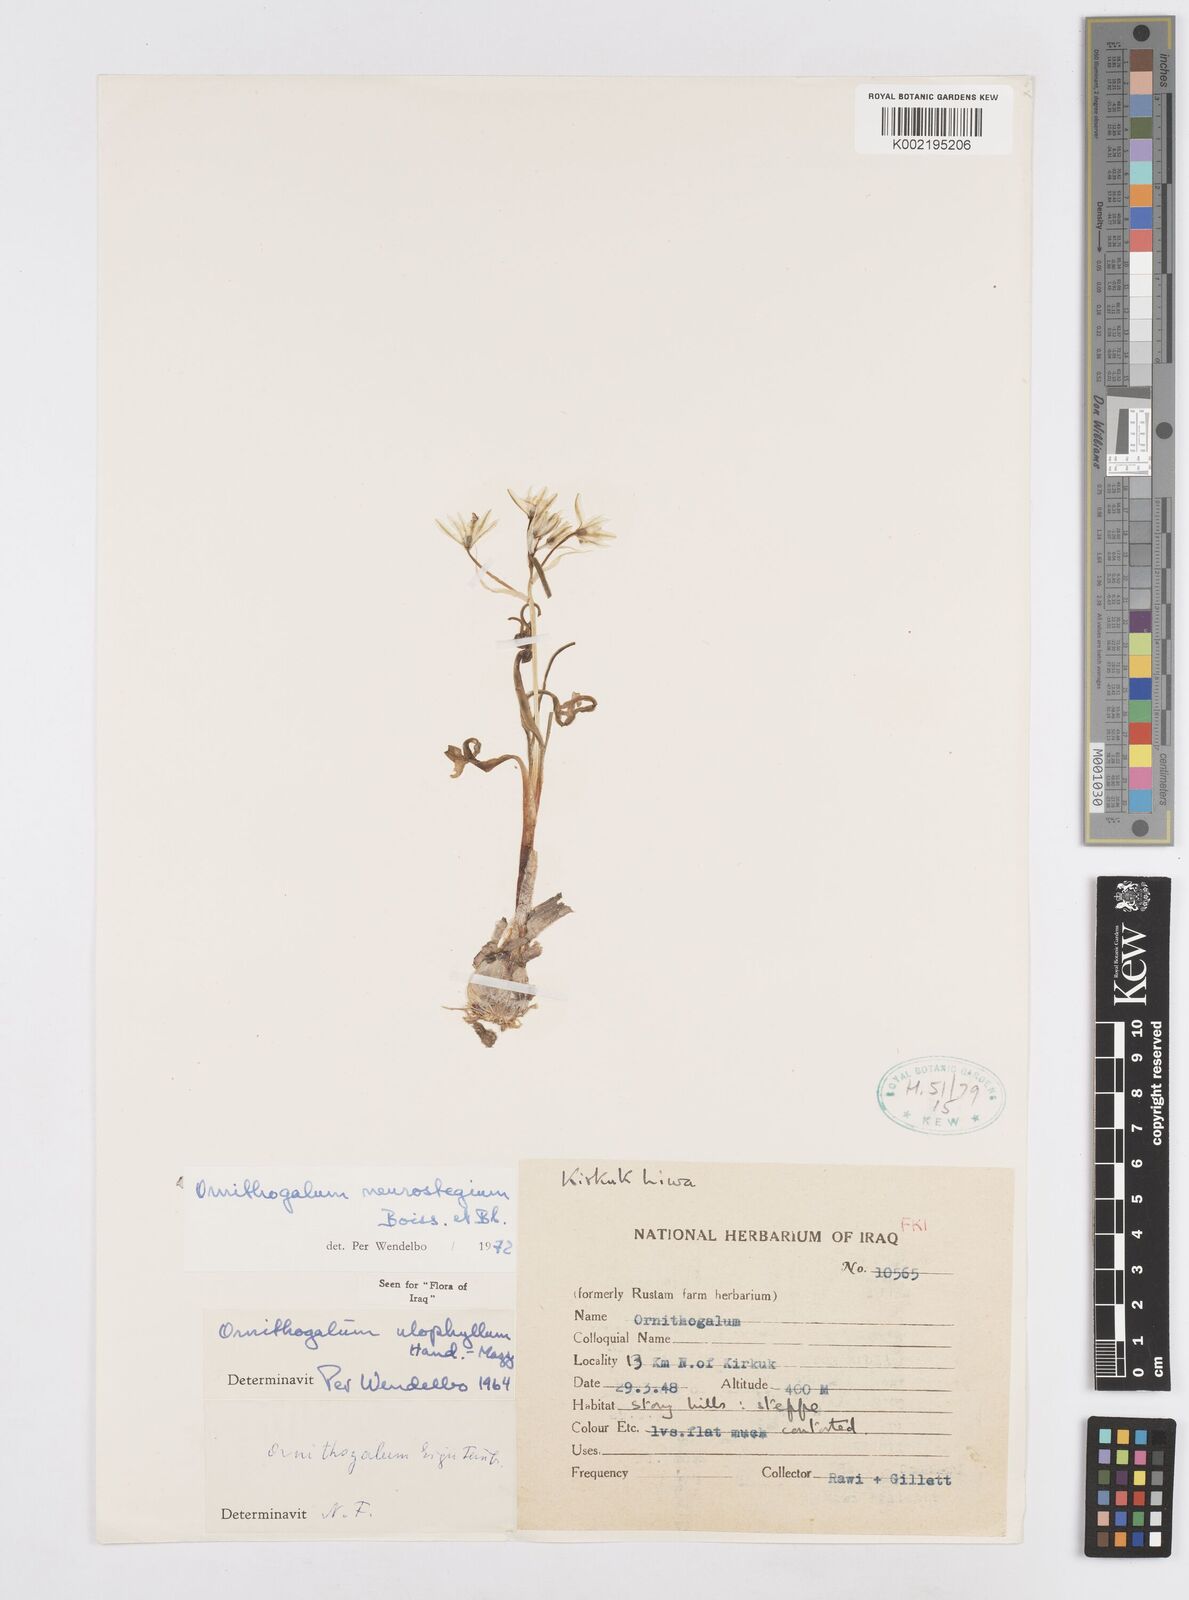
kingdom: Plantae
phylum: Tracheophyta
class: Liliopsida
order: Asparagales
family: Asparagaceae
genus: Ornithogalum
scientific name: Ornithogalum neurostegium
